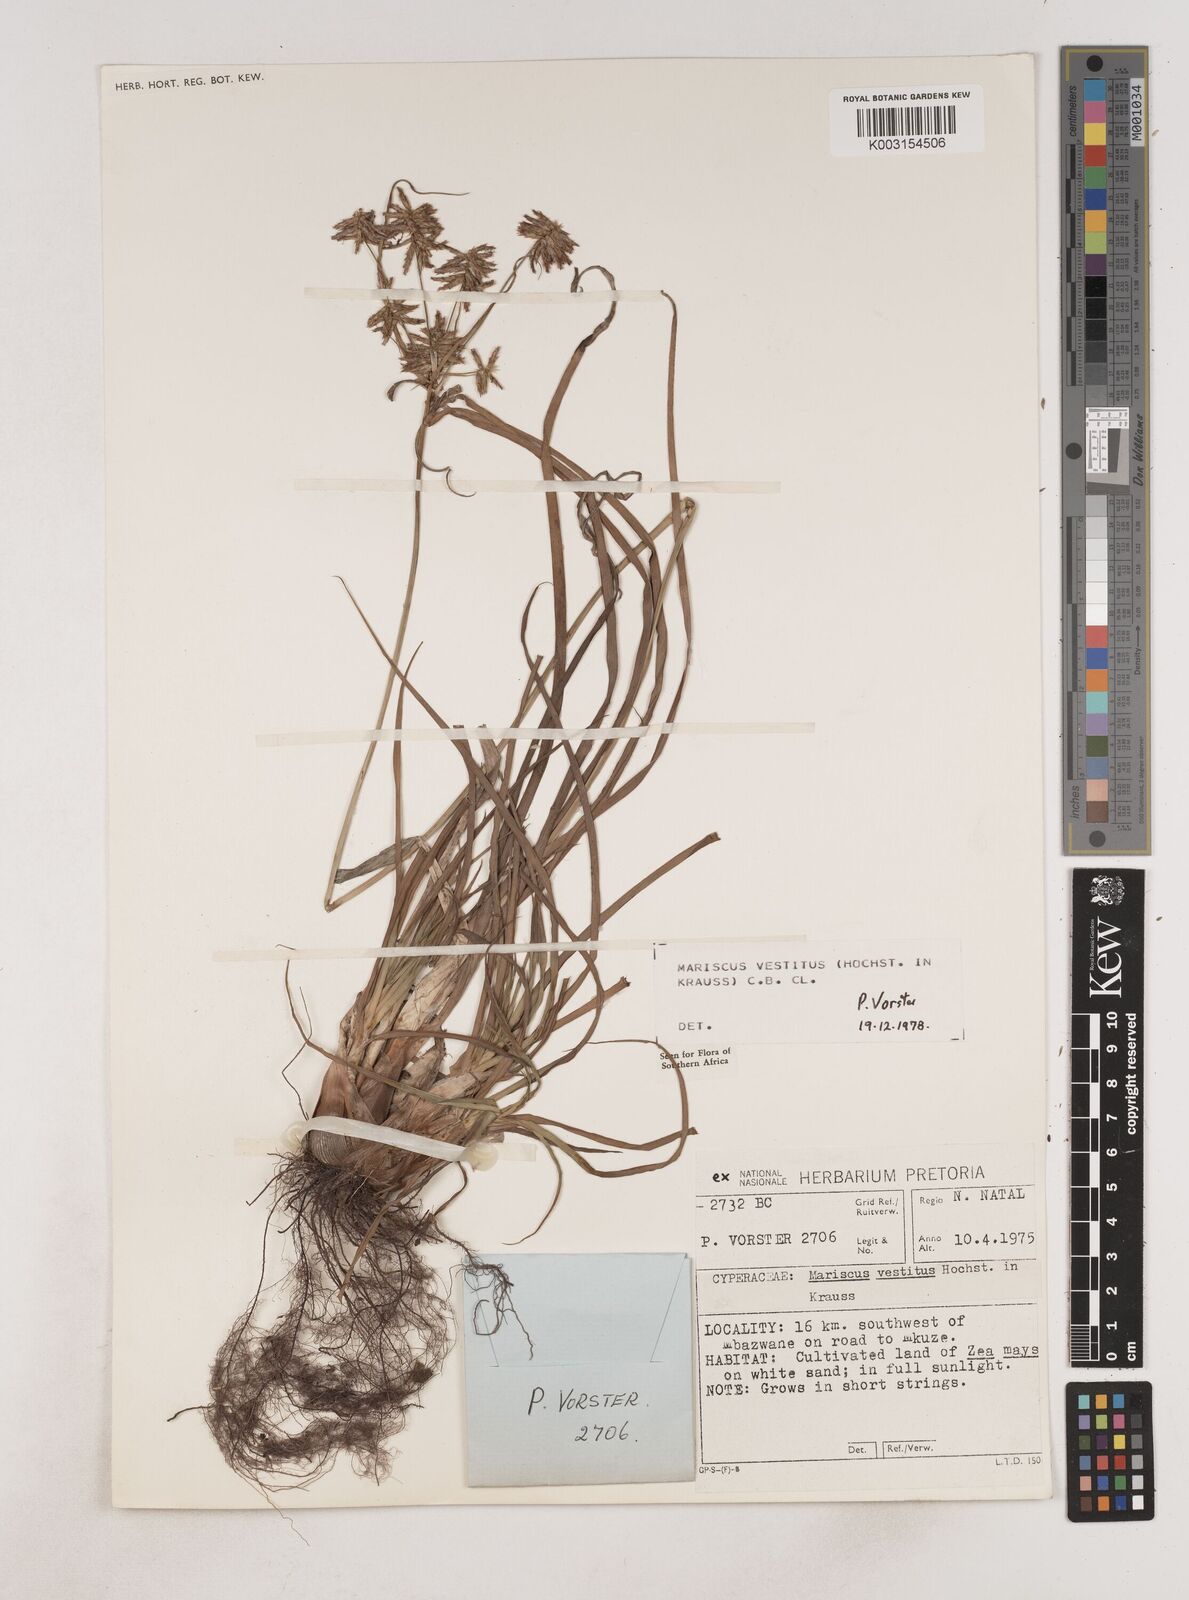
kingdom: Plantae
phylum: Tracheophyta
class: Liliopsida
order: Poales
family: Cyperaceae
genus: Cyperus
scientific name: Cyperus vestitus
